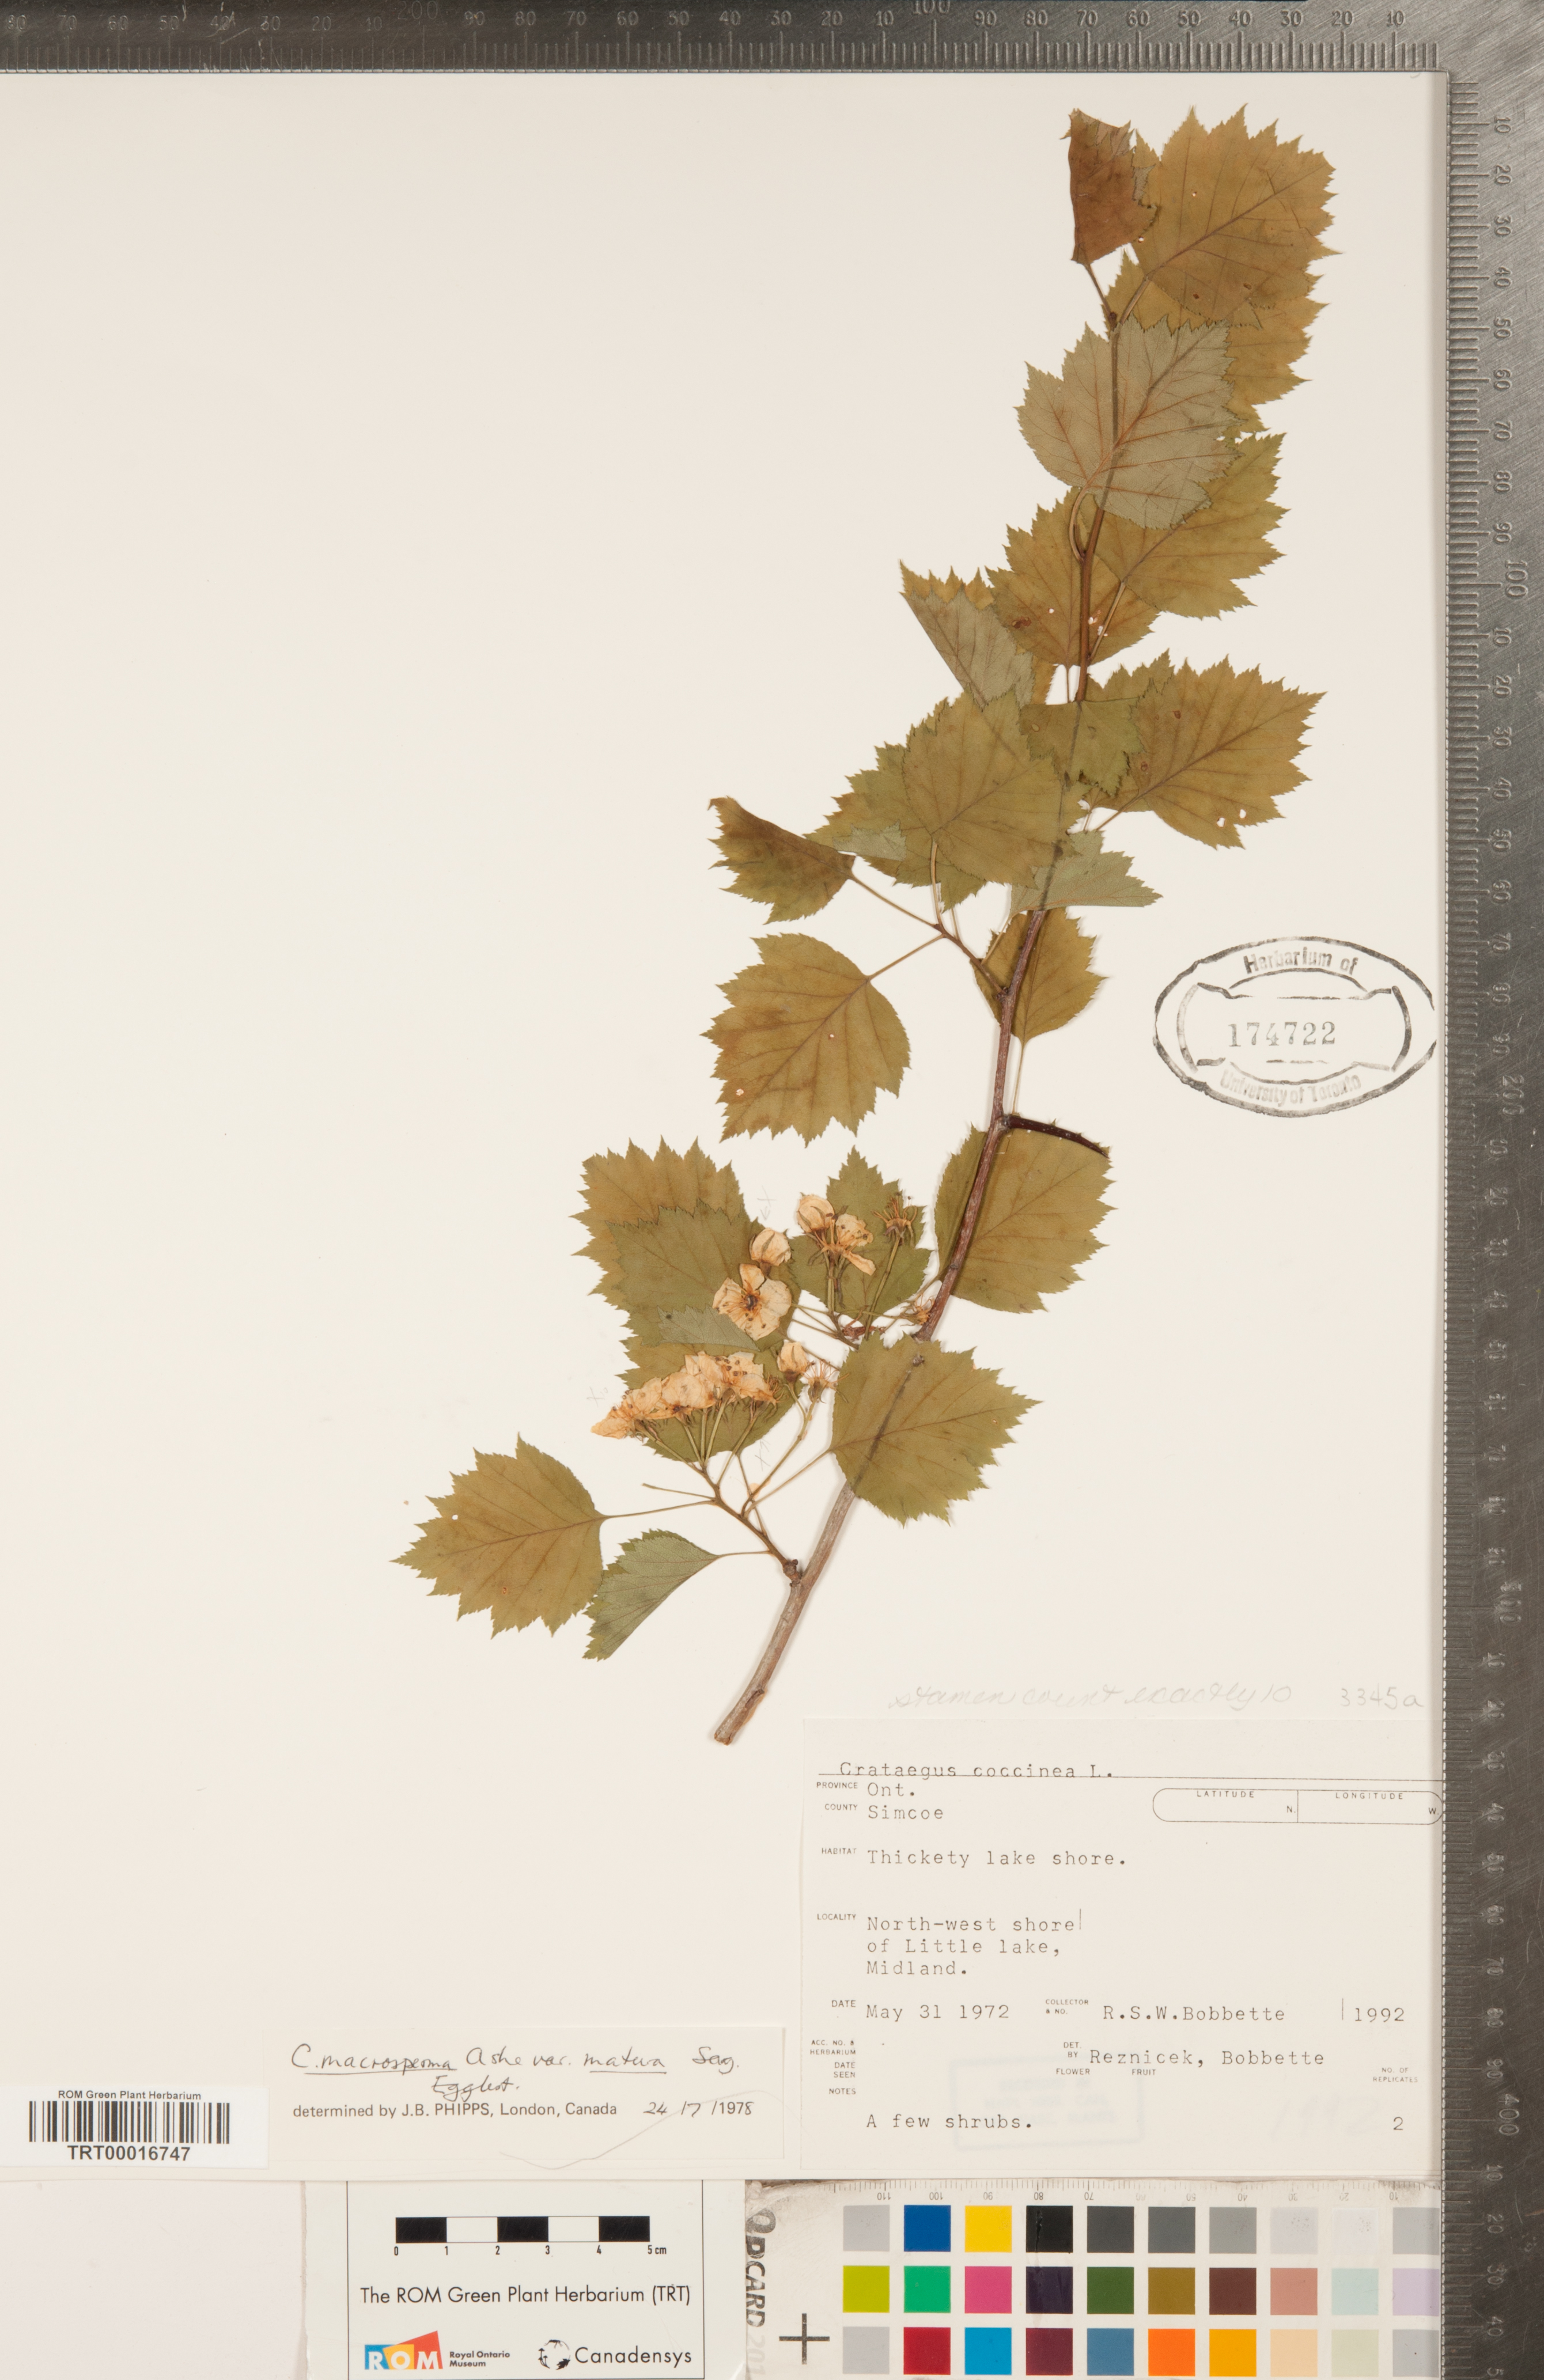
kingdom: Plantae
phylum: Tracheophyta
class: Magnoliopsida
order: Rosales
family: Rosaceae
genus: Crataegus
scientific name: Crataegus macrosperma
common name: Variable hawthorn
